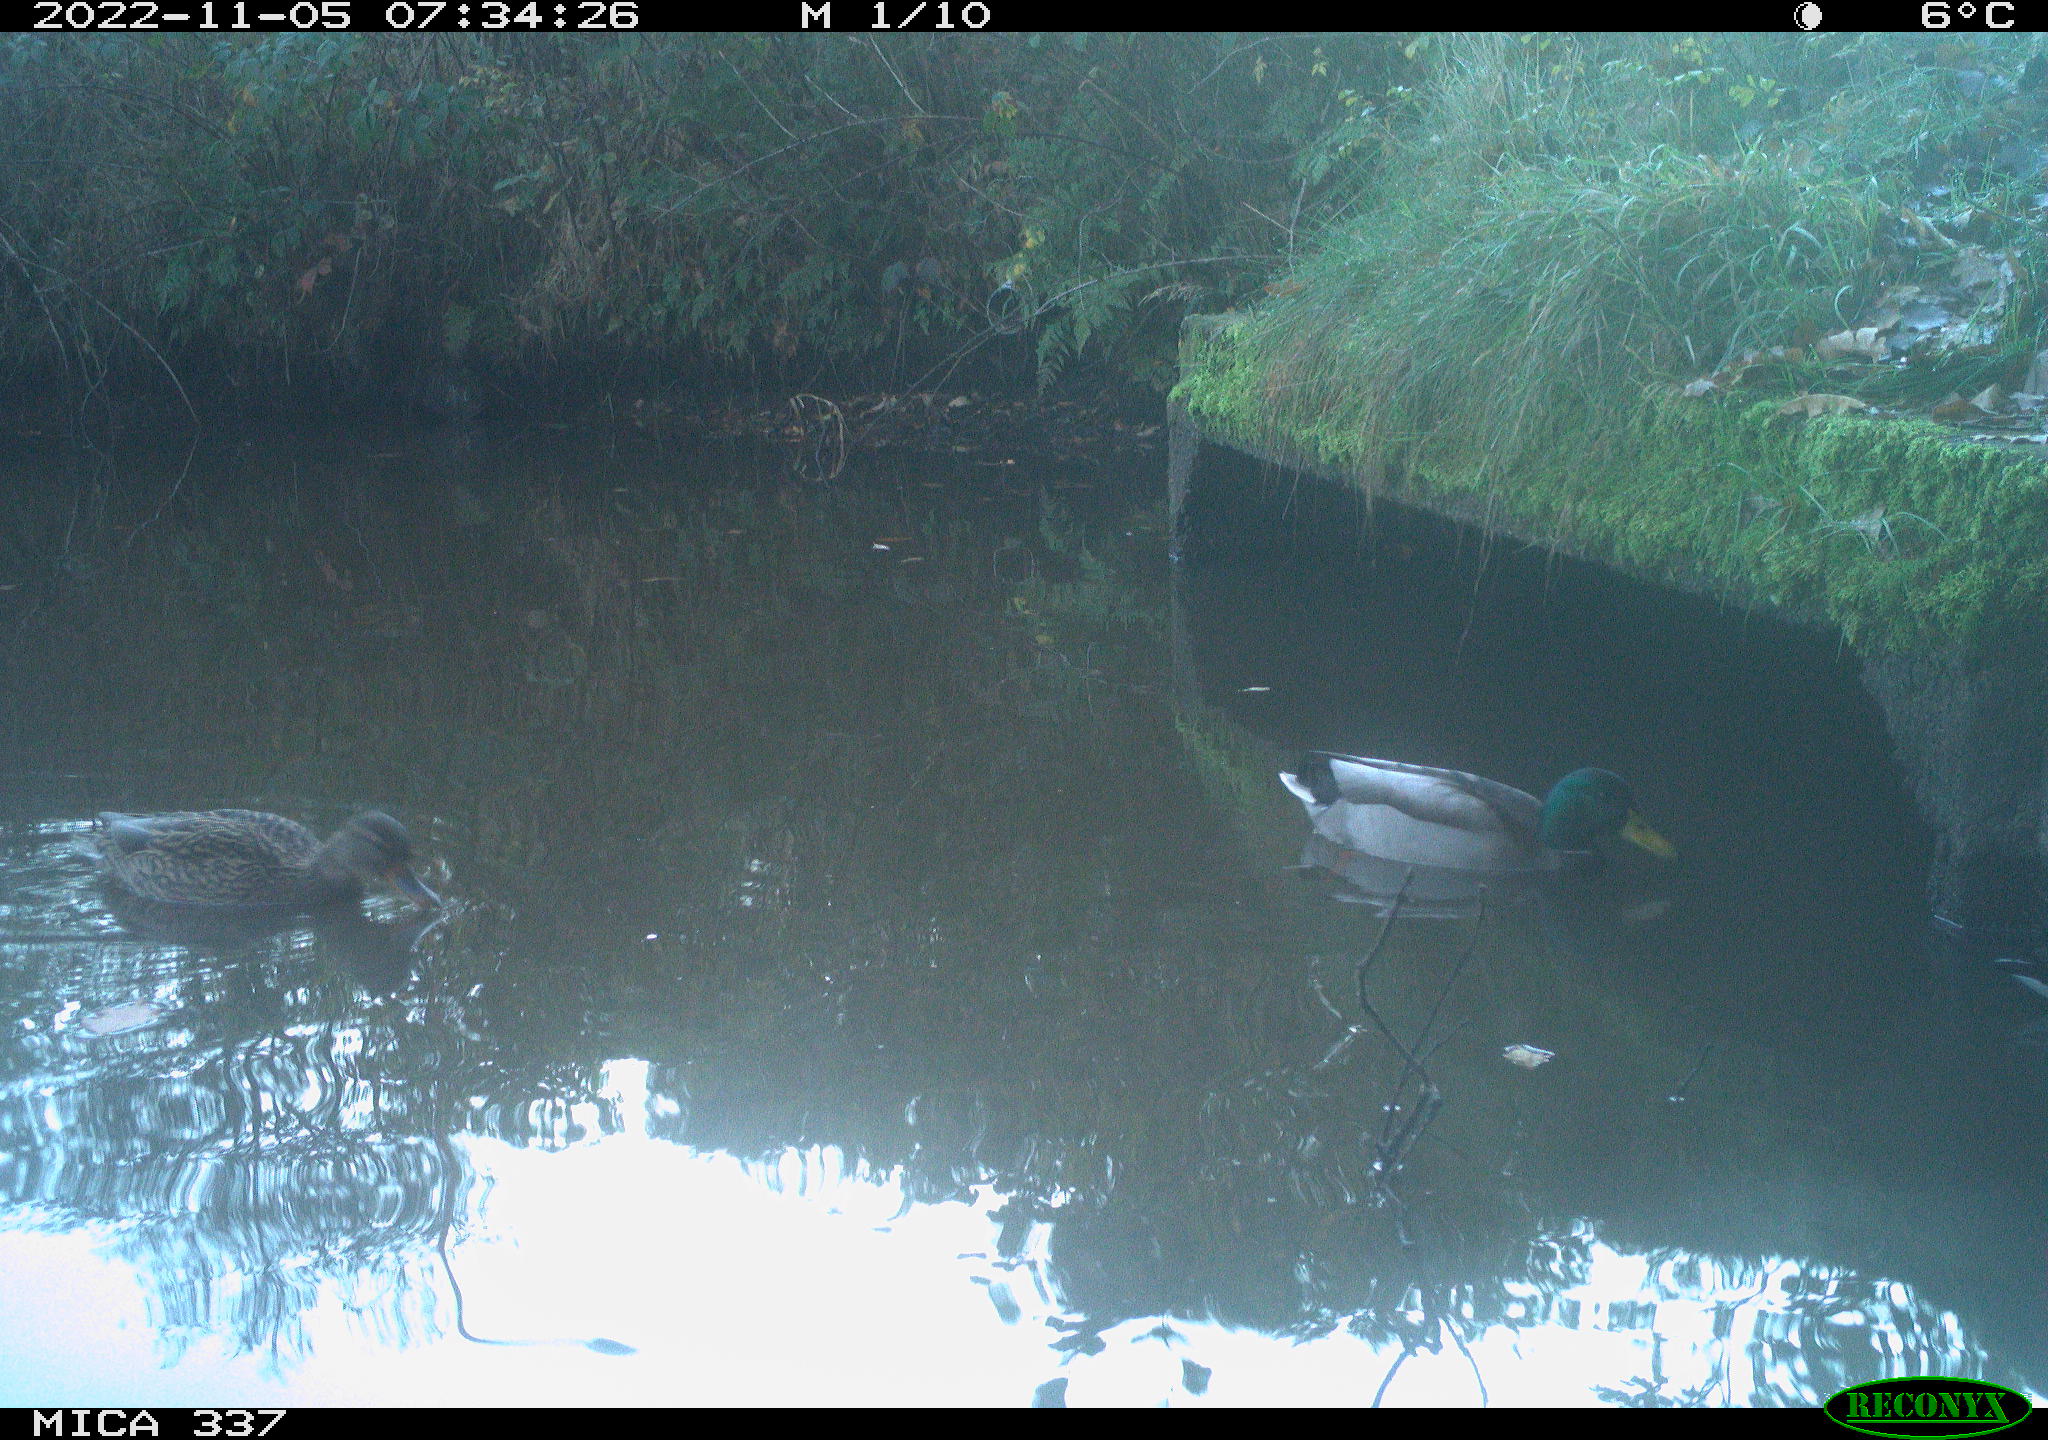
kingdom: Animalia
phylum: Chordata
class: Aves
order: Anseriformes
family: Anatidae
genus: Anas
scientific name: Anas platyrhynchos
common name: Mallard
